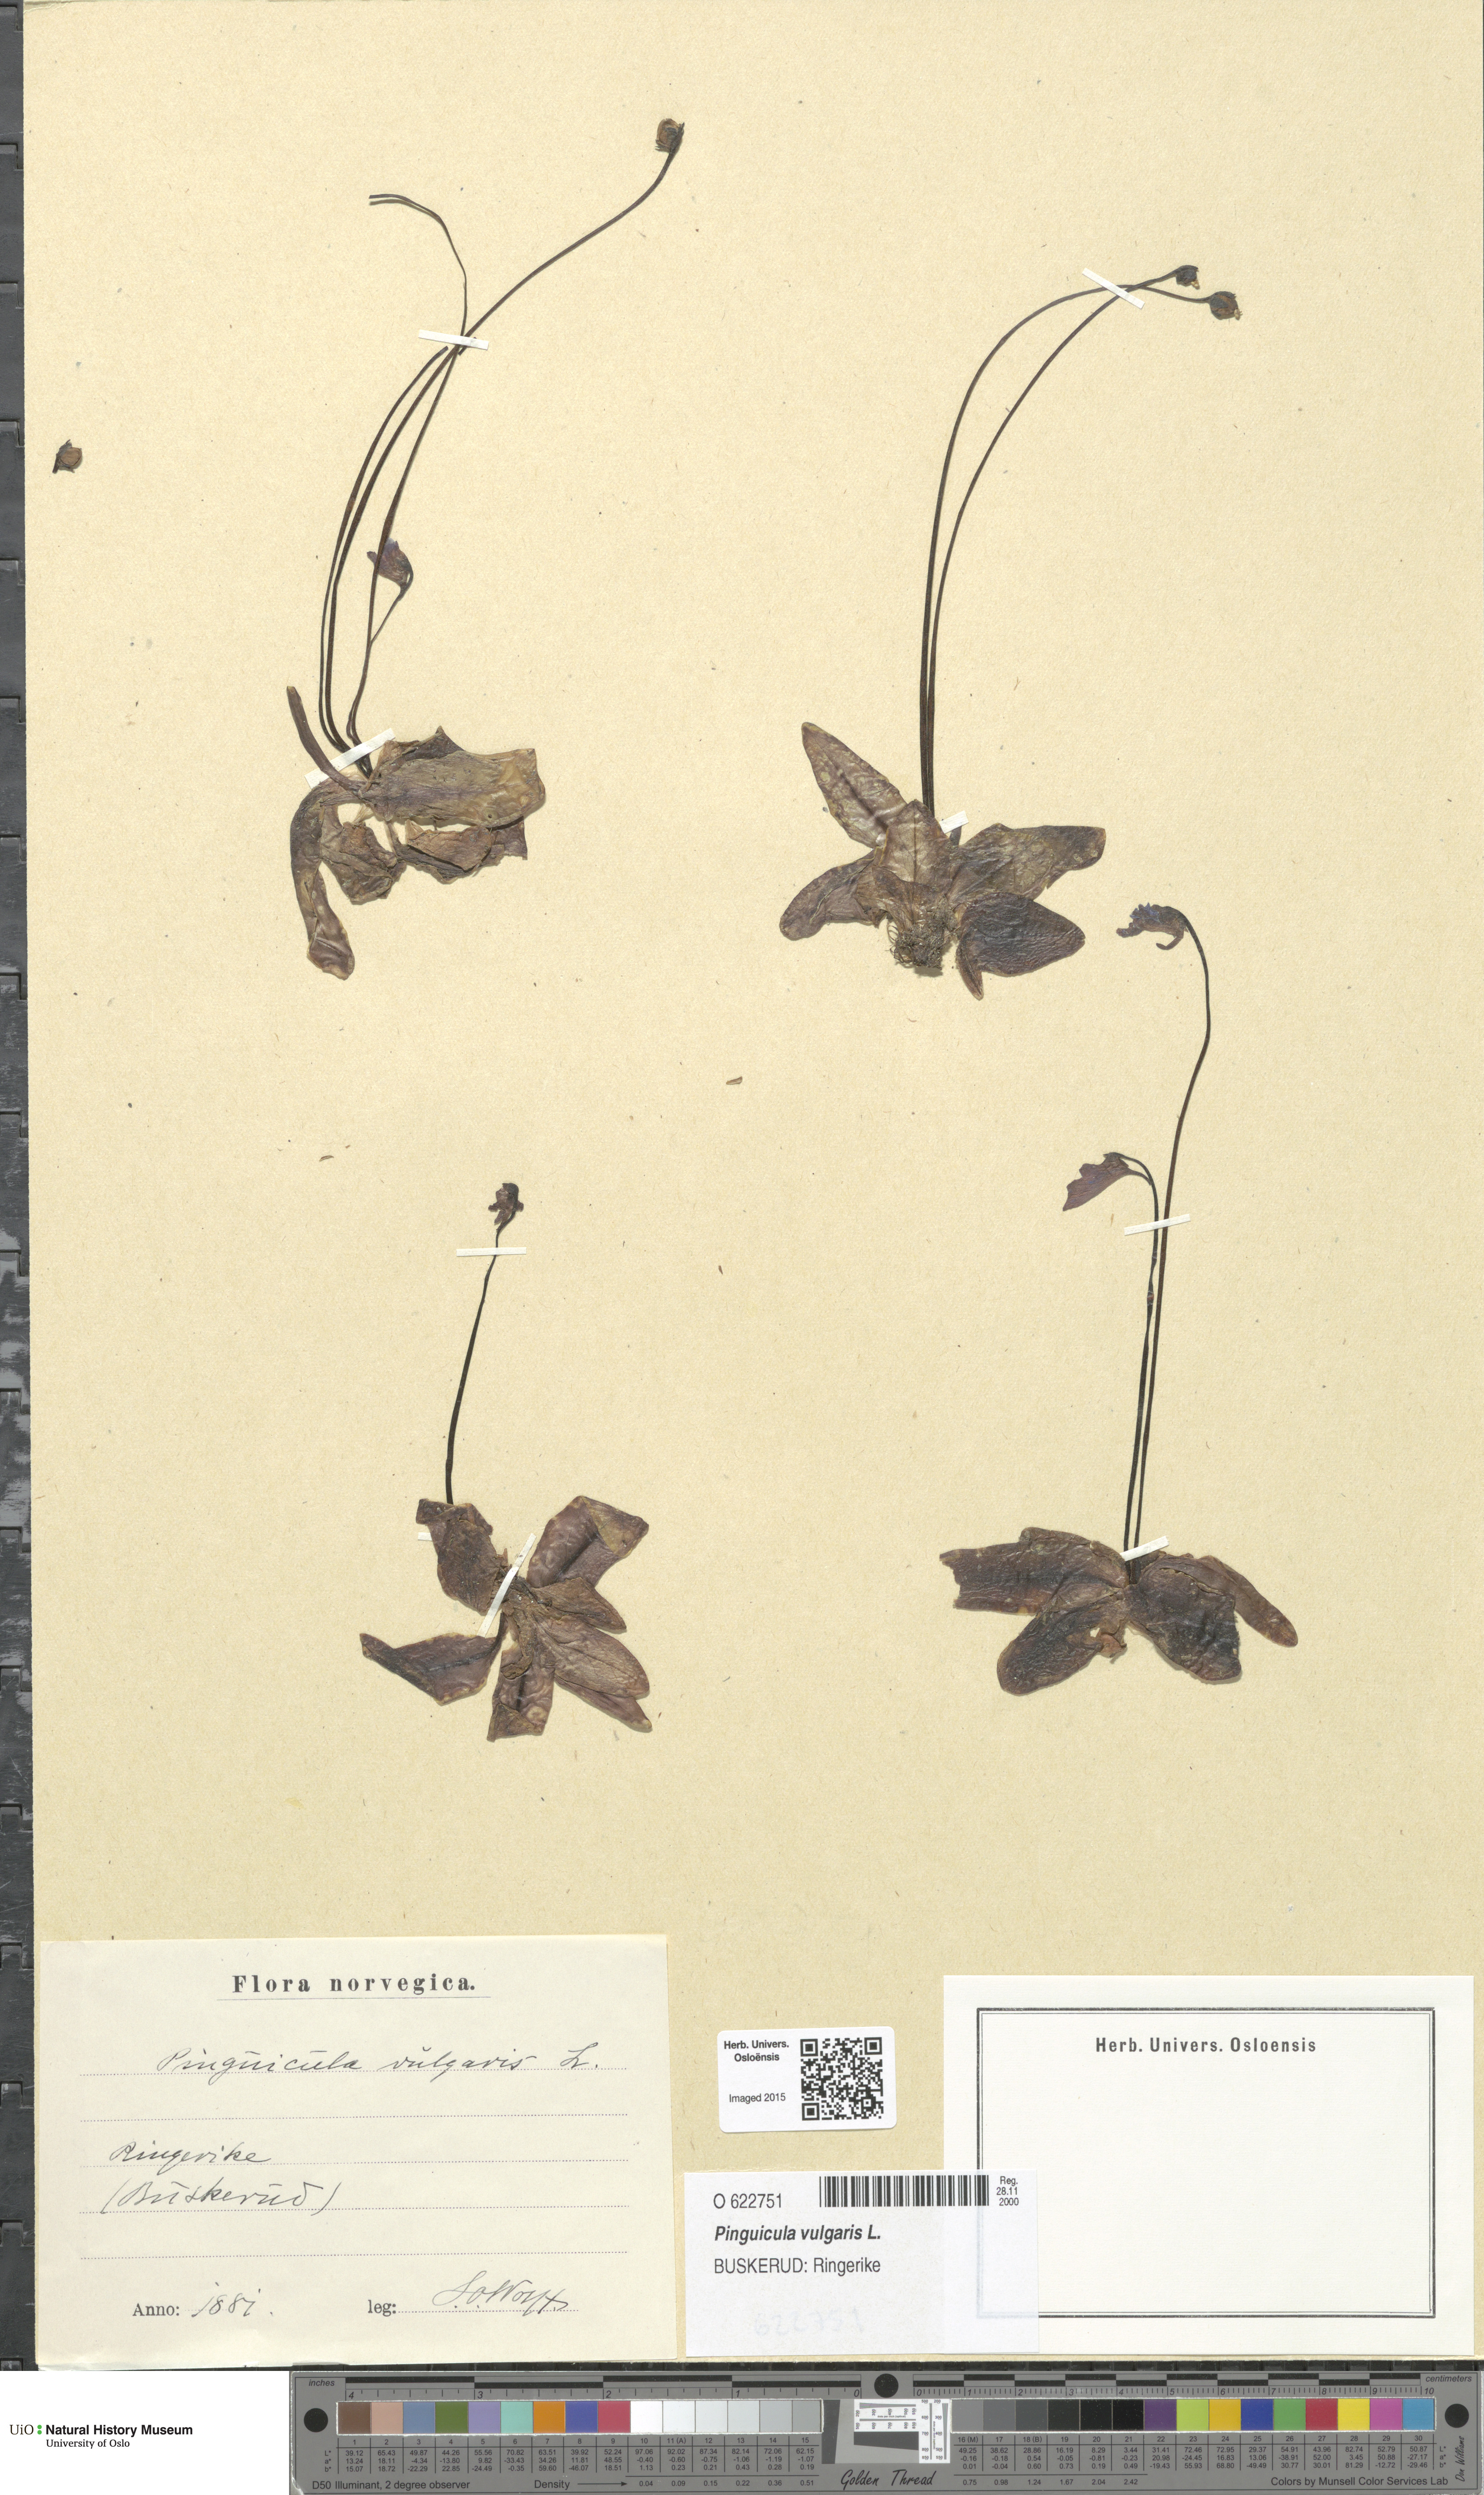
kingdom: Plantae
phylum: Tracheophyta
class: Magnoliopsida
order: Lamiales
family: Lentibulariaceae
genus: Pinguicula
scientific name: Pinguicula vulgaris
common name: Common butterwort
